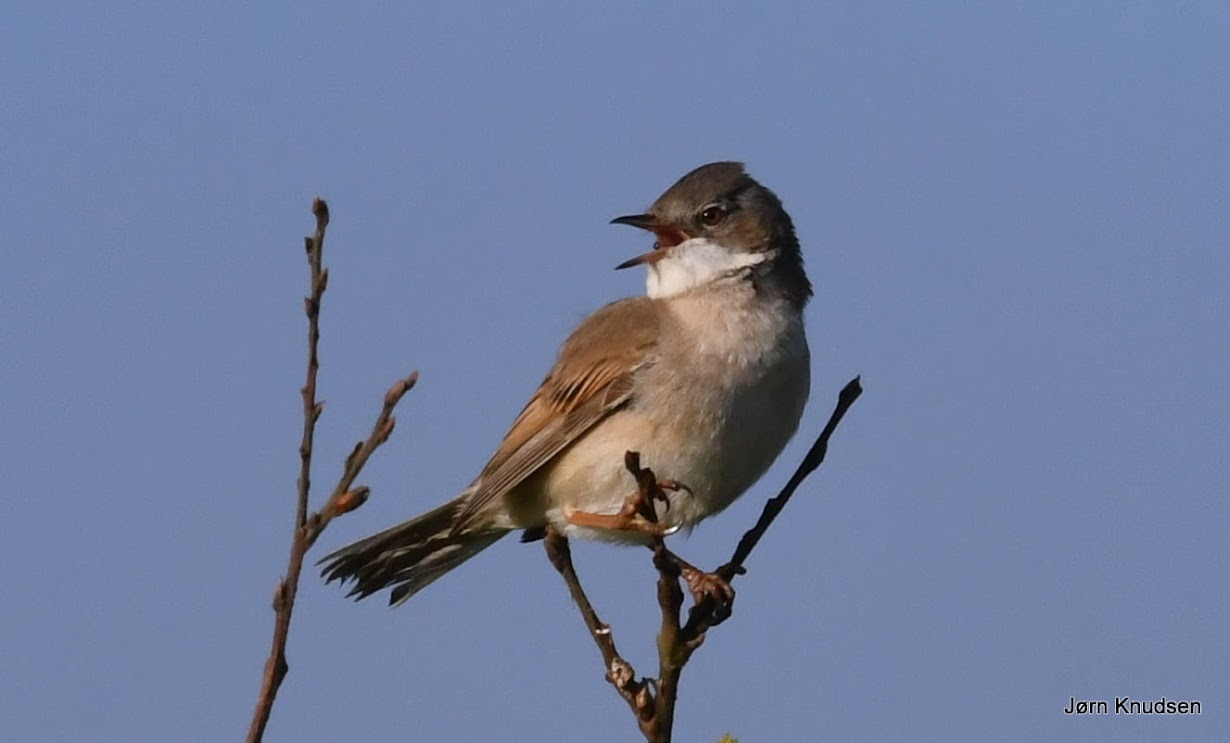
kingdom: Animalia
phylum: Chordata
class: Aves
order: Passeriformes
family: Sylviidae
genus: Sylvia
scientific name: Sylvia communis
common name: Tornsanger
